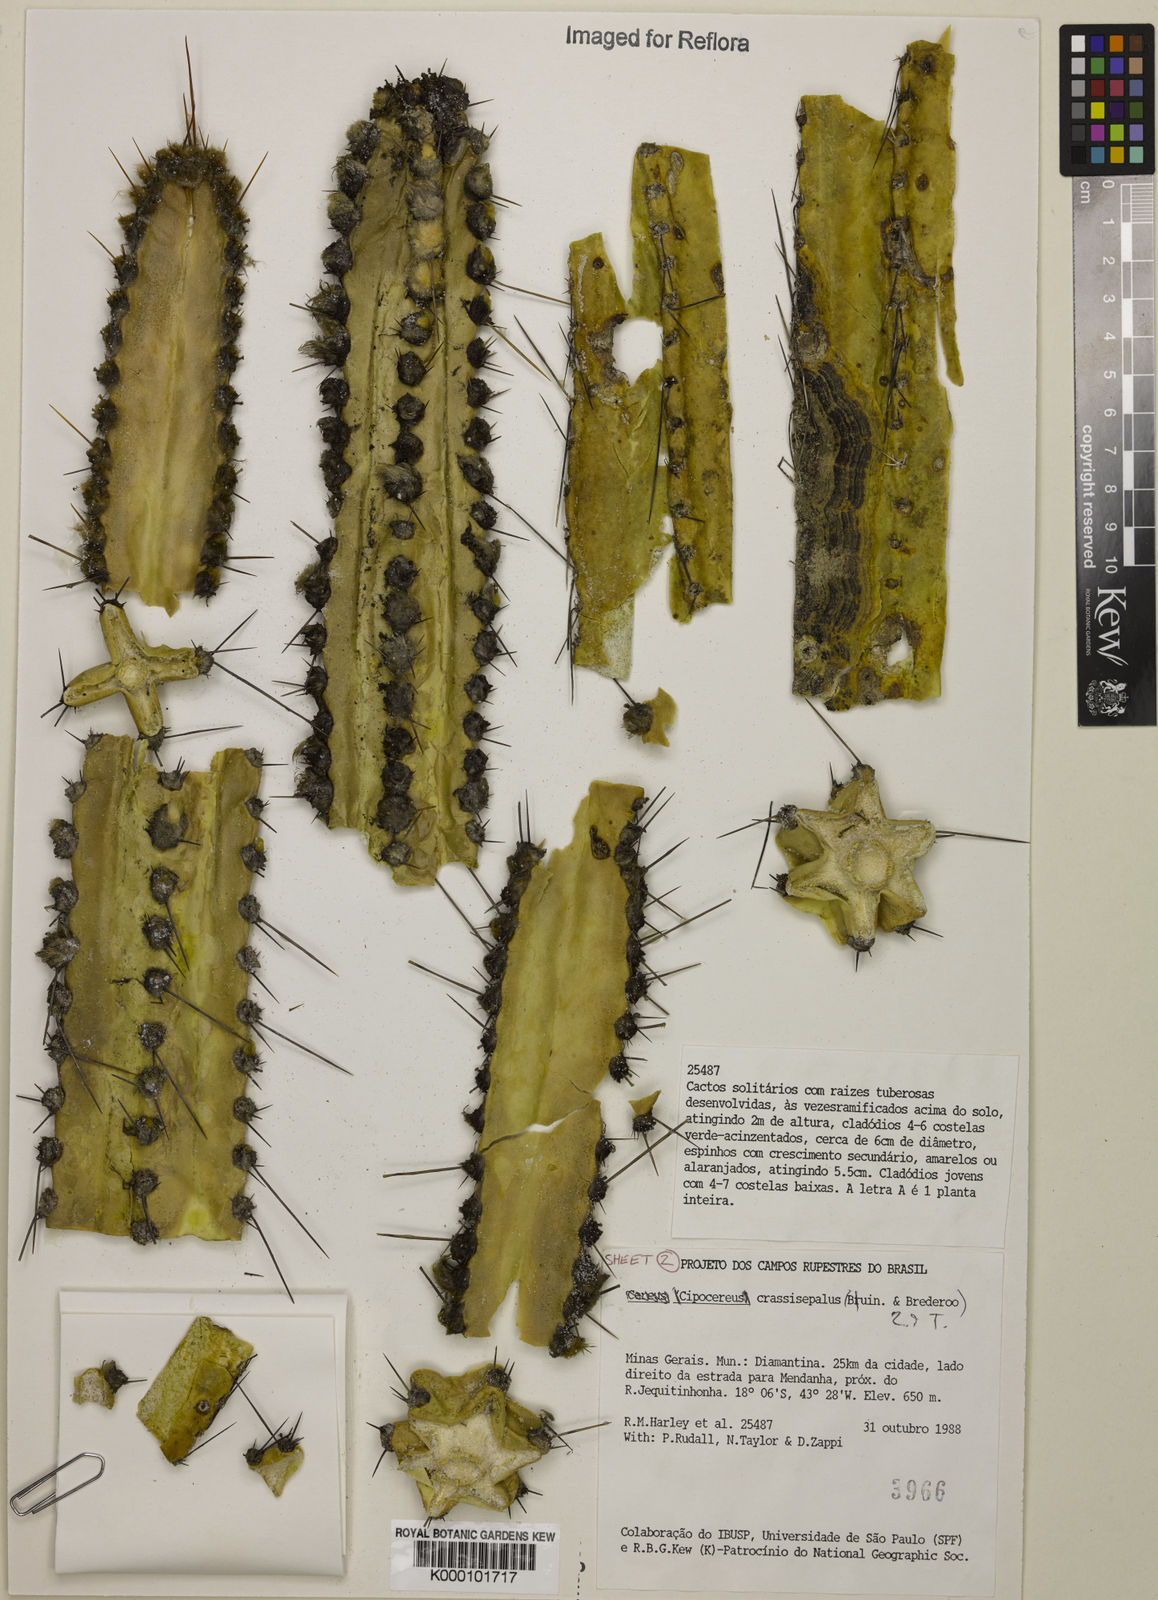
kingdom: Plantae
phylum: Tracheophyta
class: Magnoliopsida
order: Caryophyllales
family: Cactaceae
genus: Cipocereus
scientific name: Cipocereus crassisepalus
